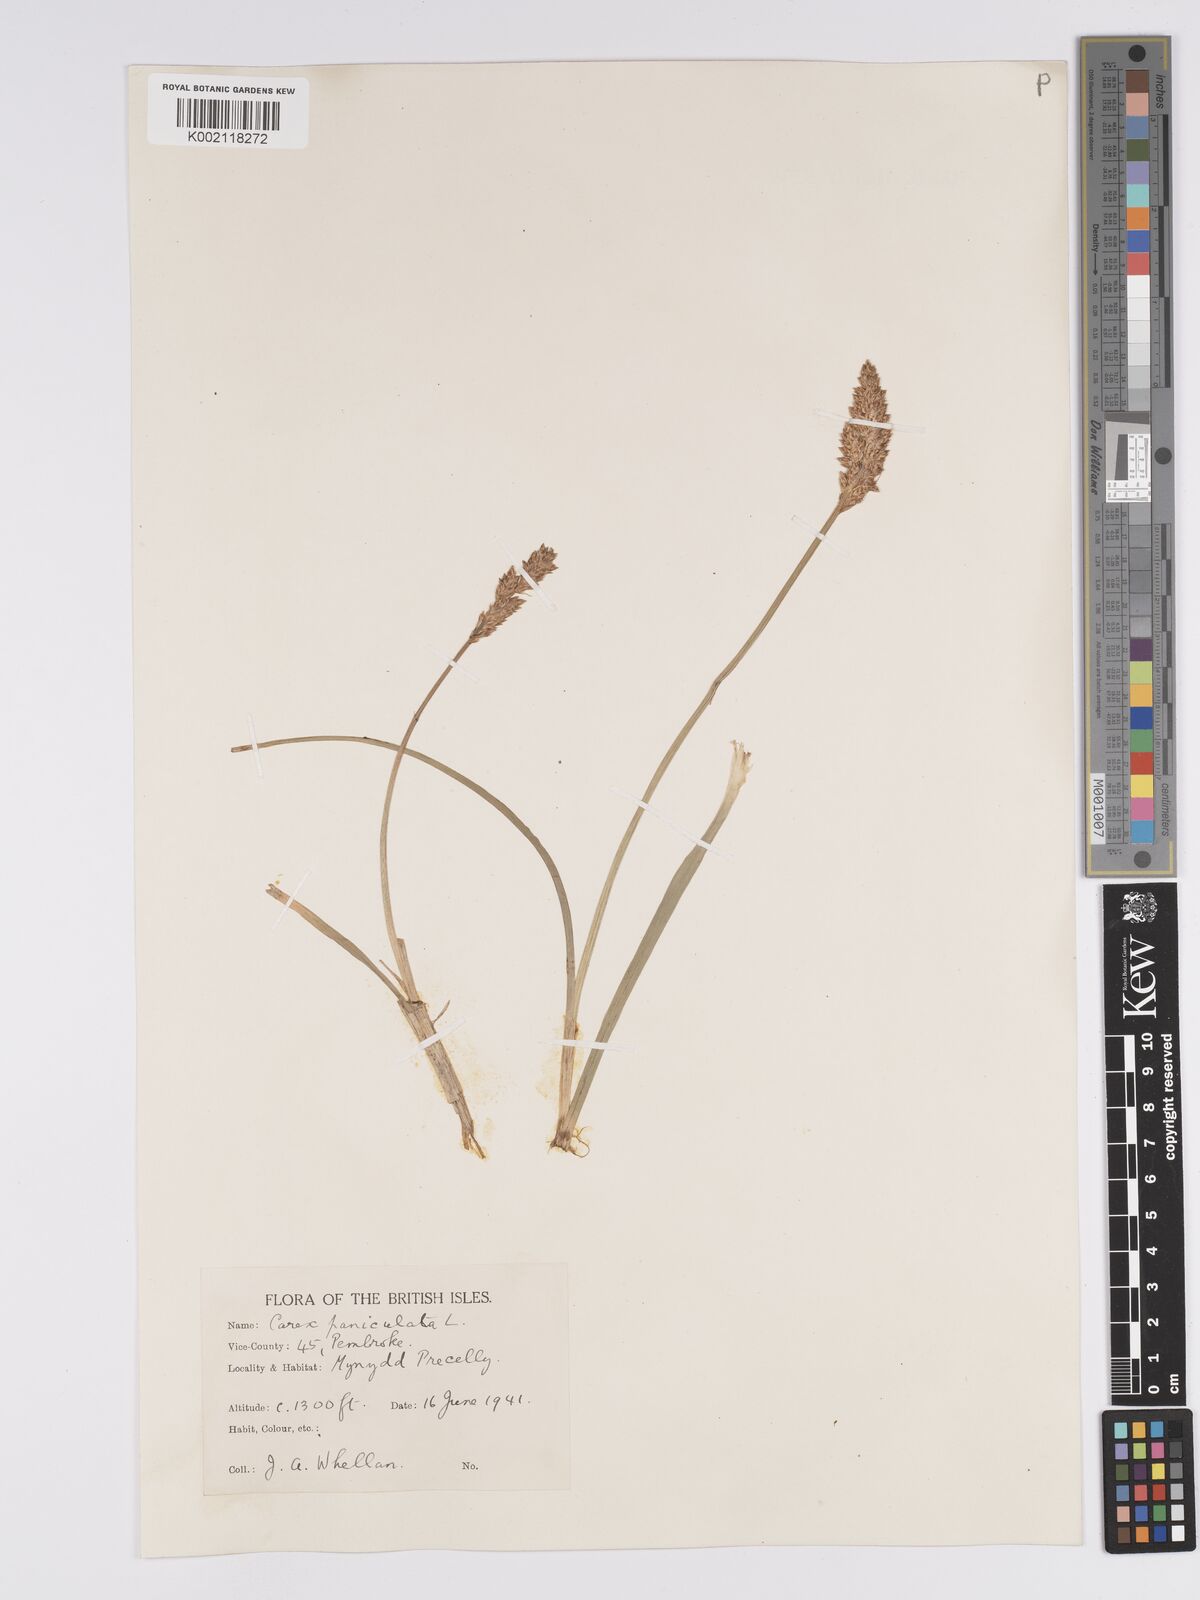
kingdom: Plantae
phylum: Tracheophyta
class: Liliopsida
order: Poales
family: Cyperaceae
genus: Carex
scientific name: Carex paniculata
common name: Greater tussock-sedge
